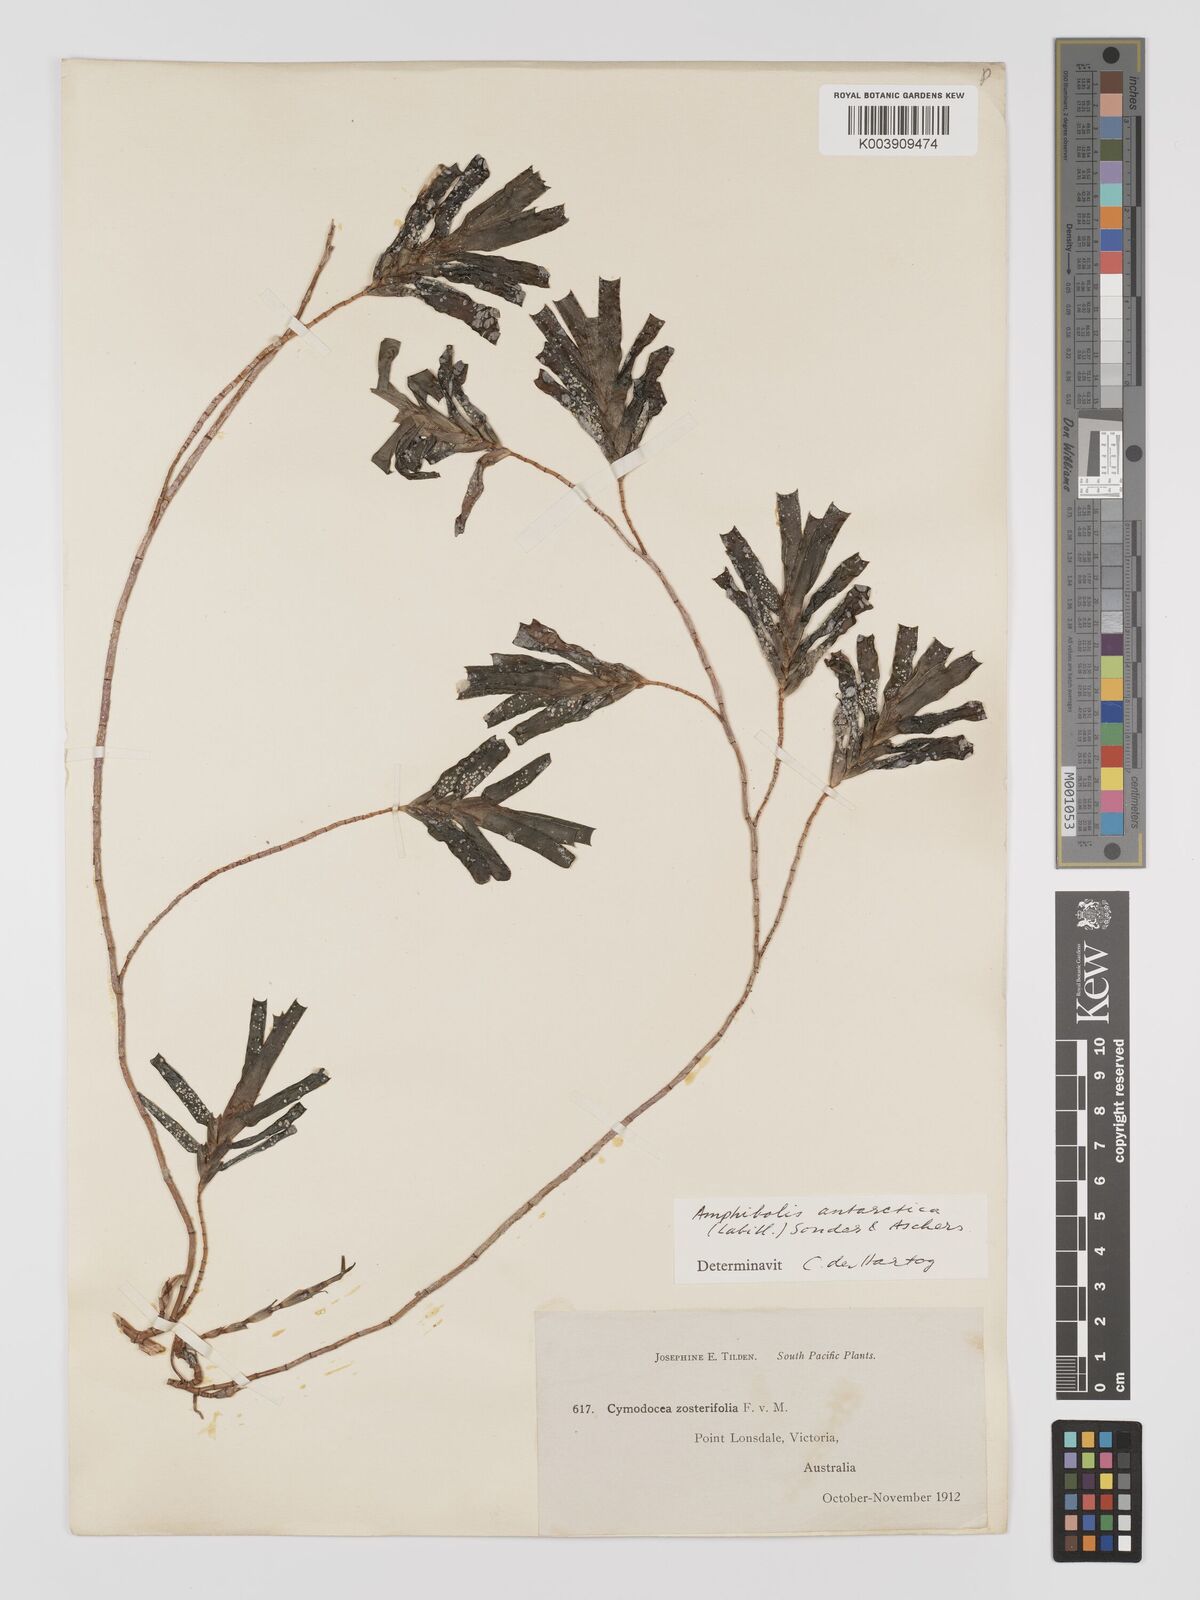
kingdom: Plantae
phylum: Tracheophyta
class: Liliopsida
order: Alismatales
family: Cymodoceaceae
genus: Amphibolis
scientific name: Amphibolis antarctica
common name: Species code: aa
